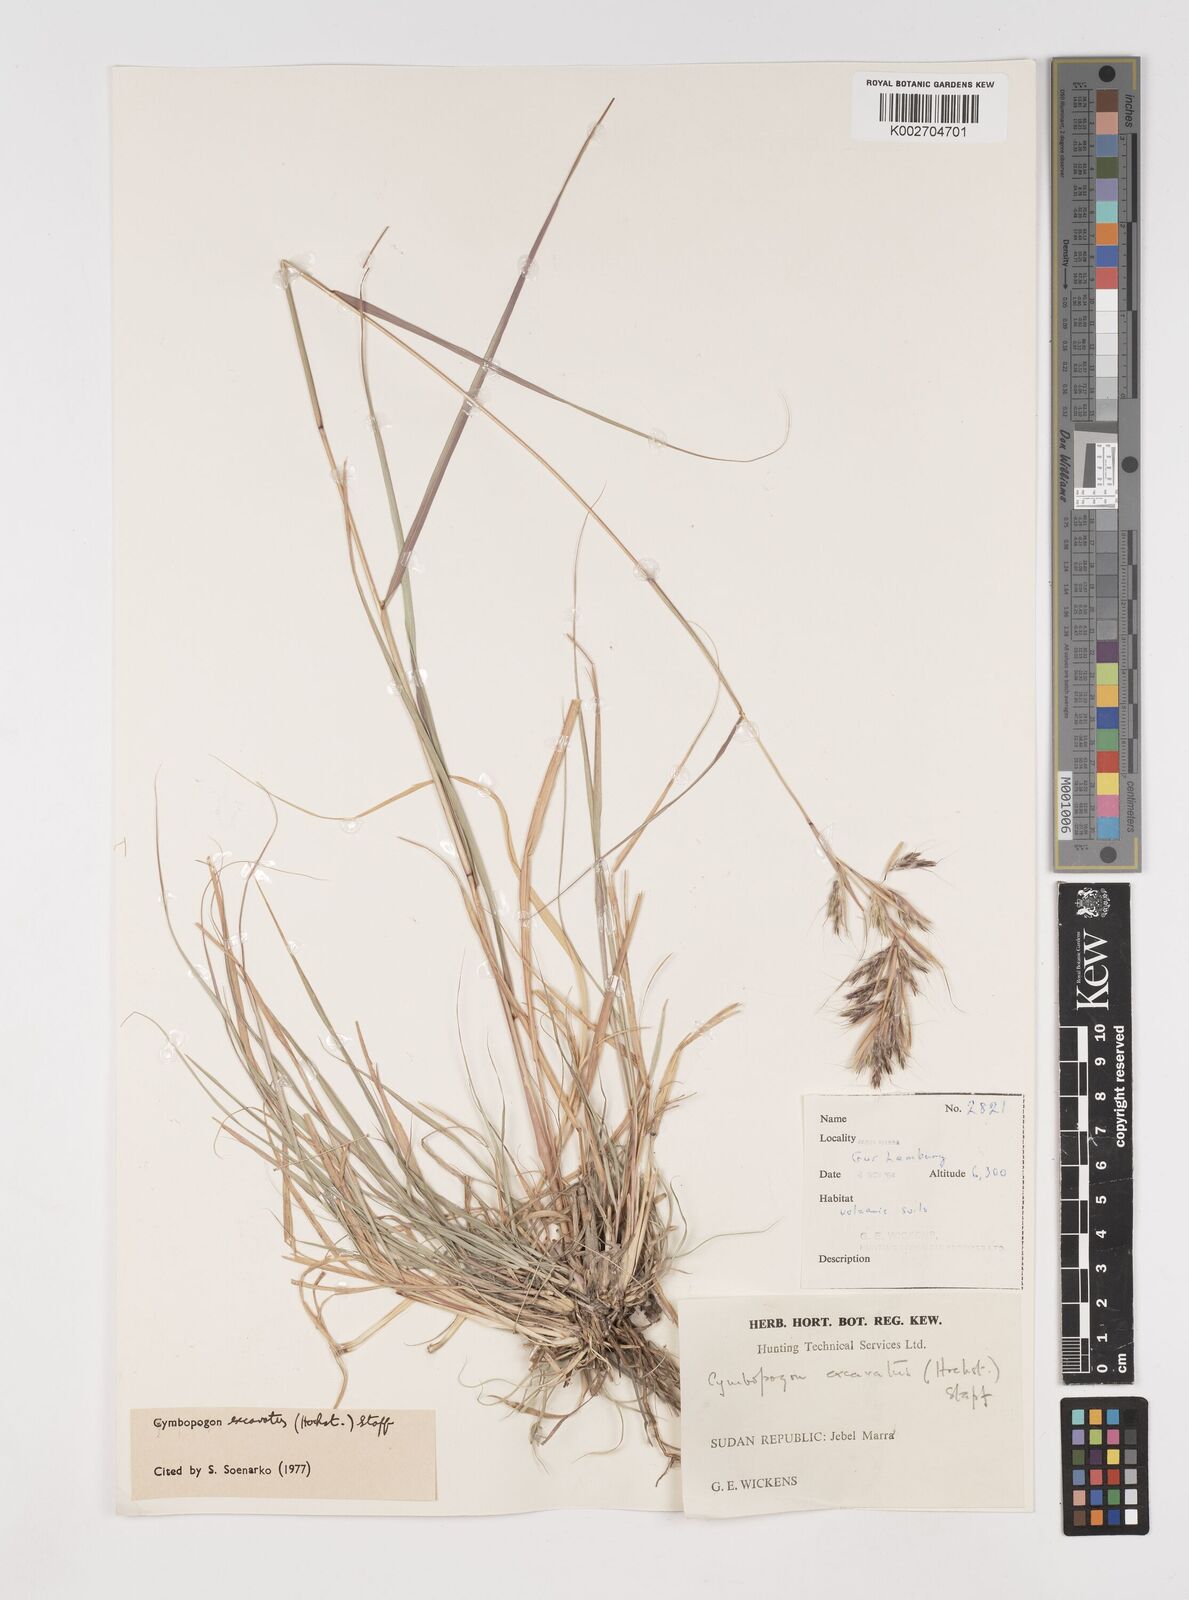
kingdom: Plantae
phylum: Tracheophyta
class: Liliopsida
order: Poales
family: Poaceae
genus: Cymbopogon
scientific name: Cymbopogon caesius
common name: Kachi grass
